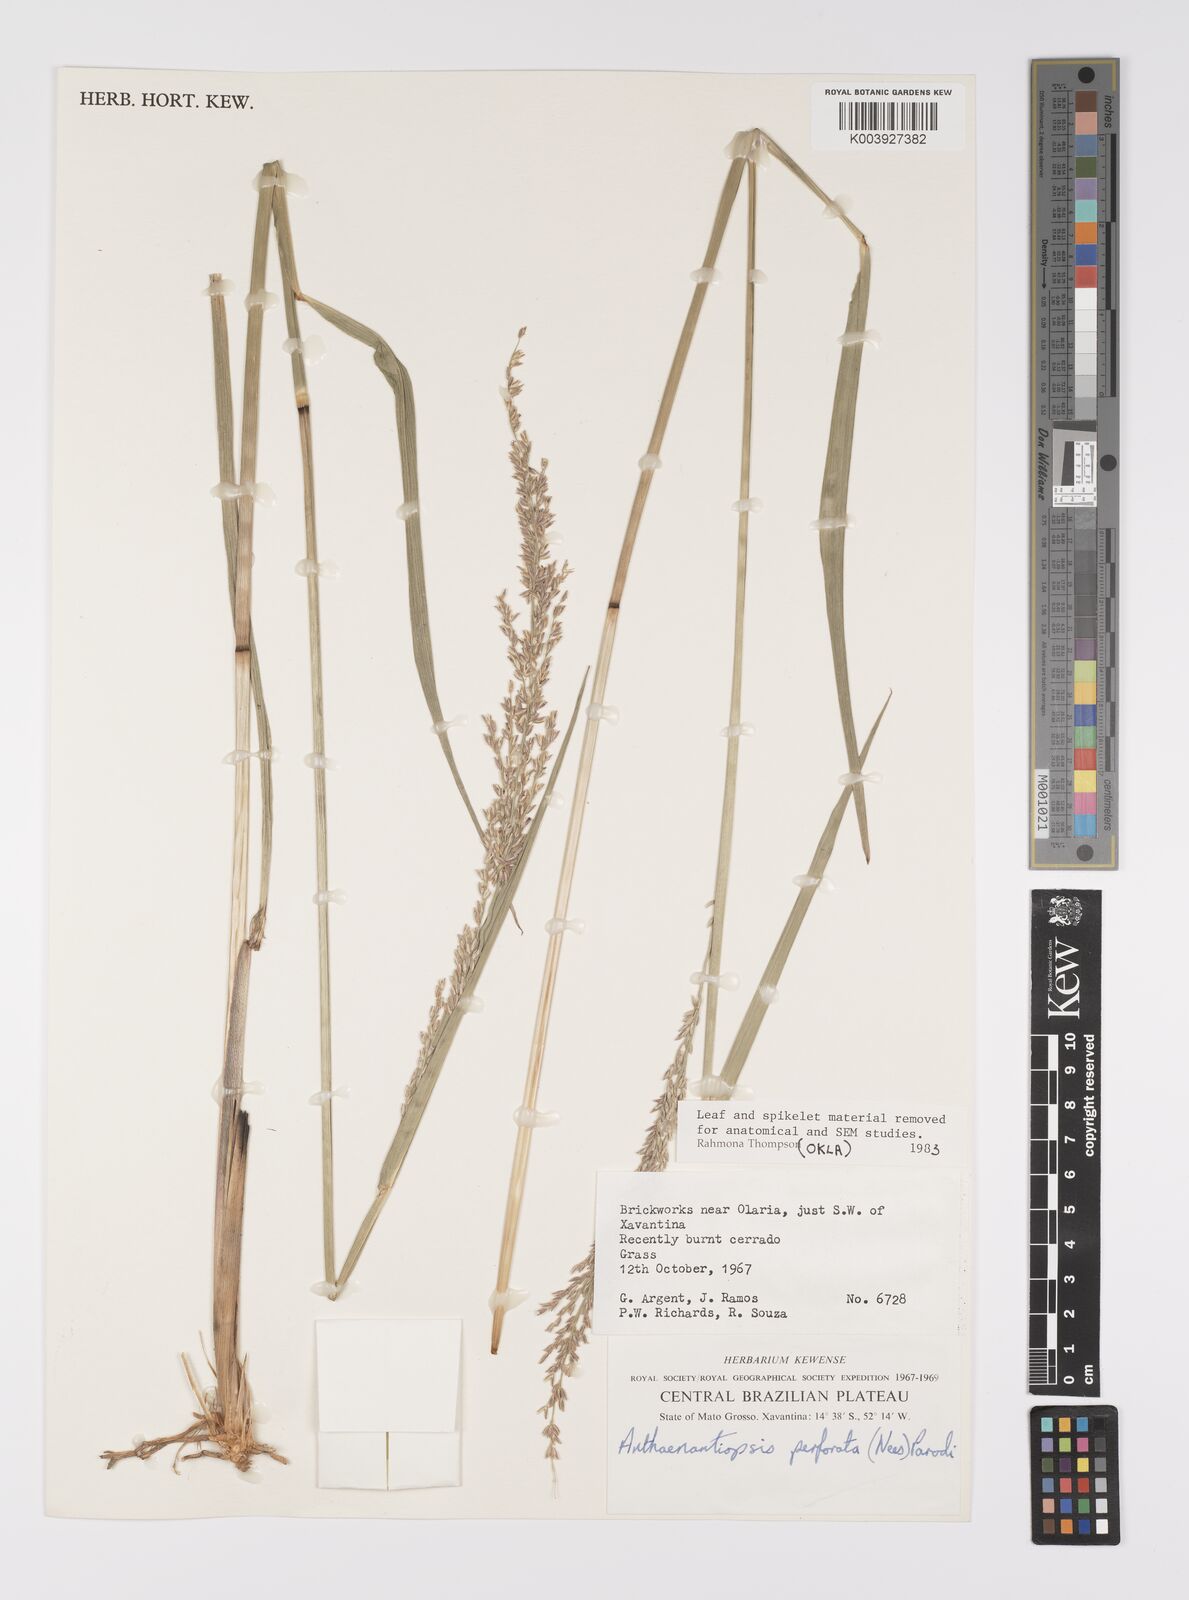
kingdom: Plantae
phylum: Tracheophyta
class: Liliopsida
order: Poales
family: Poaceae
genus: Anthaenantiopsis
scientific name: Anthaenantiopsis perforata
